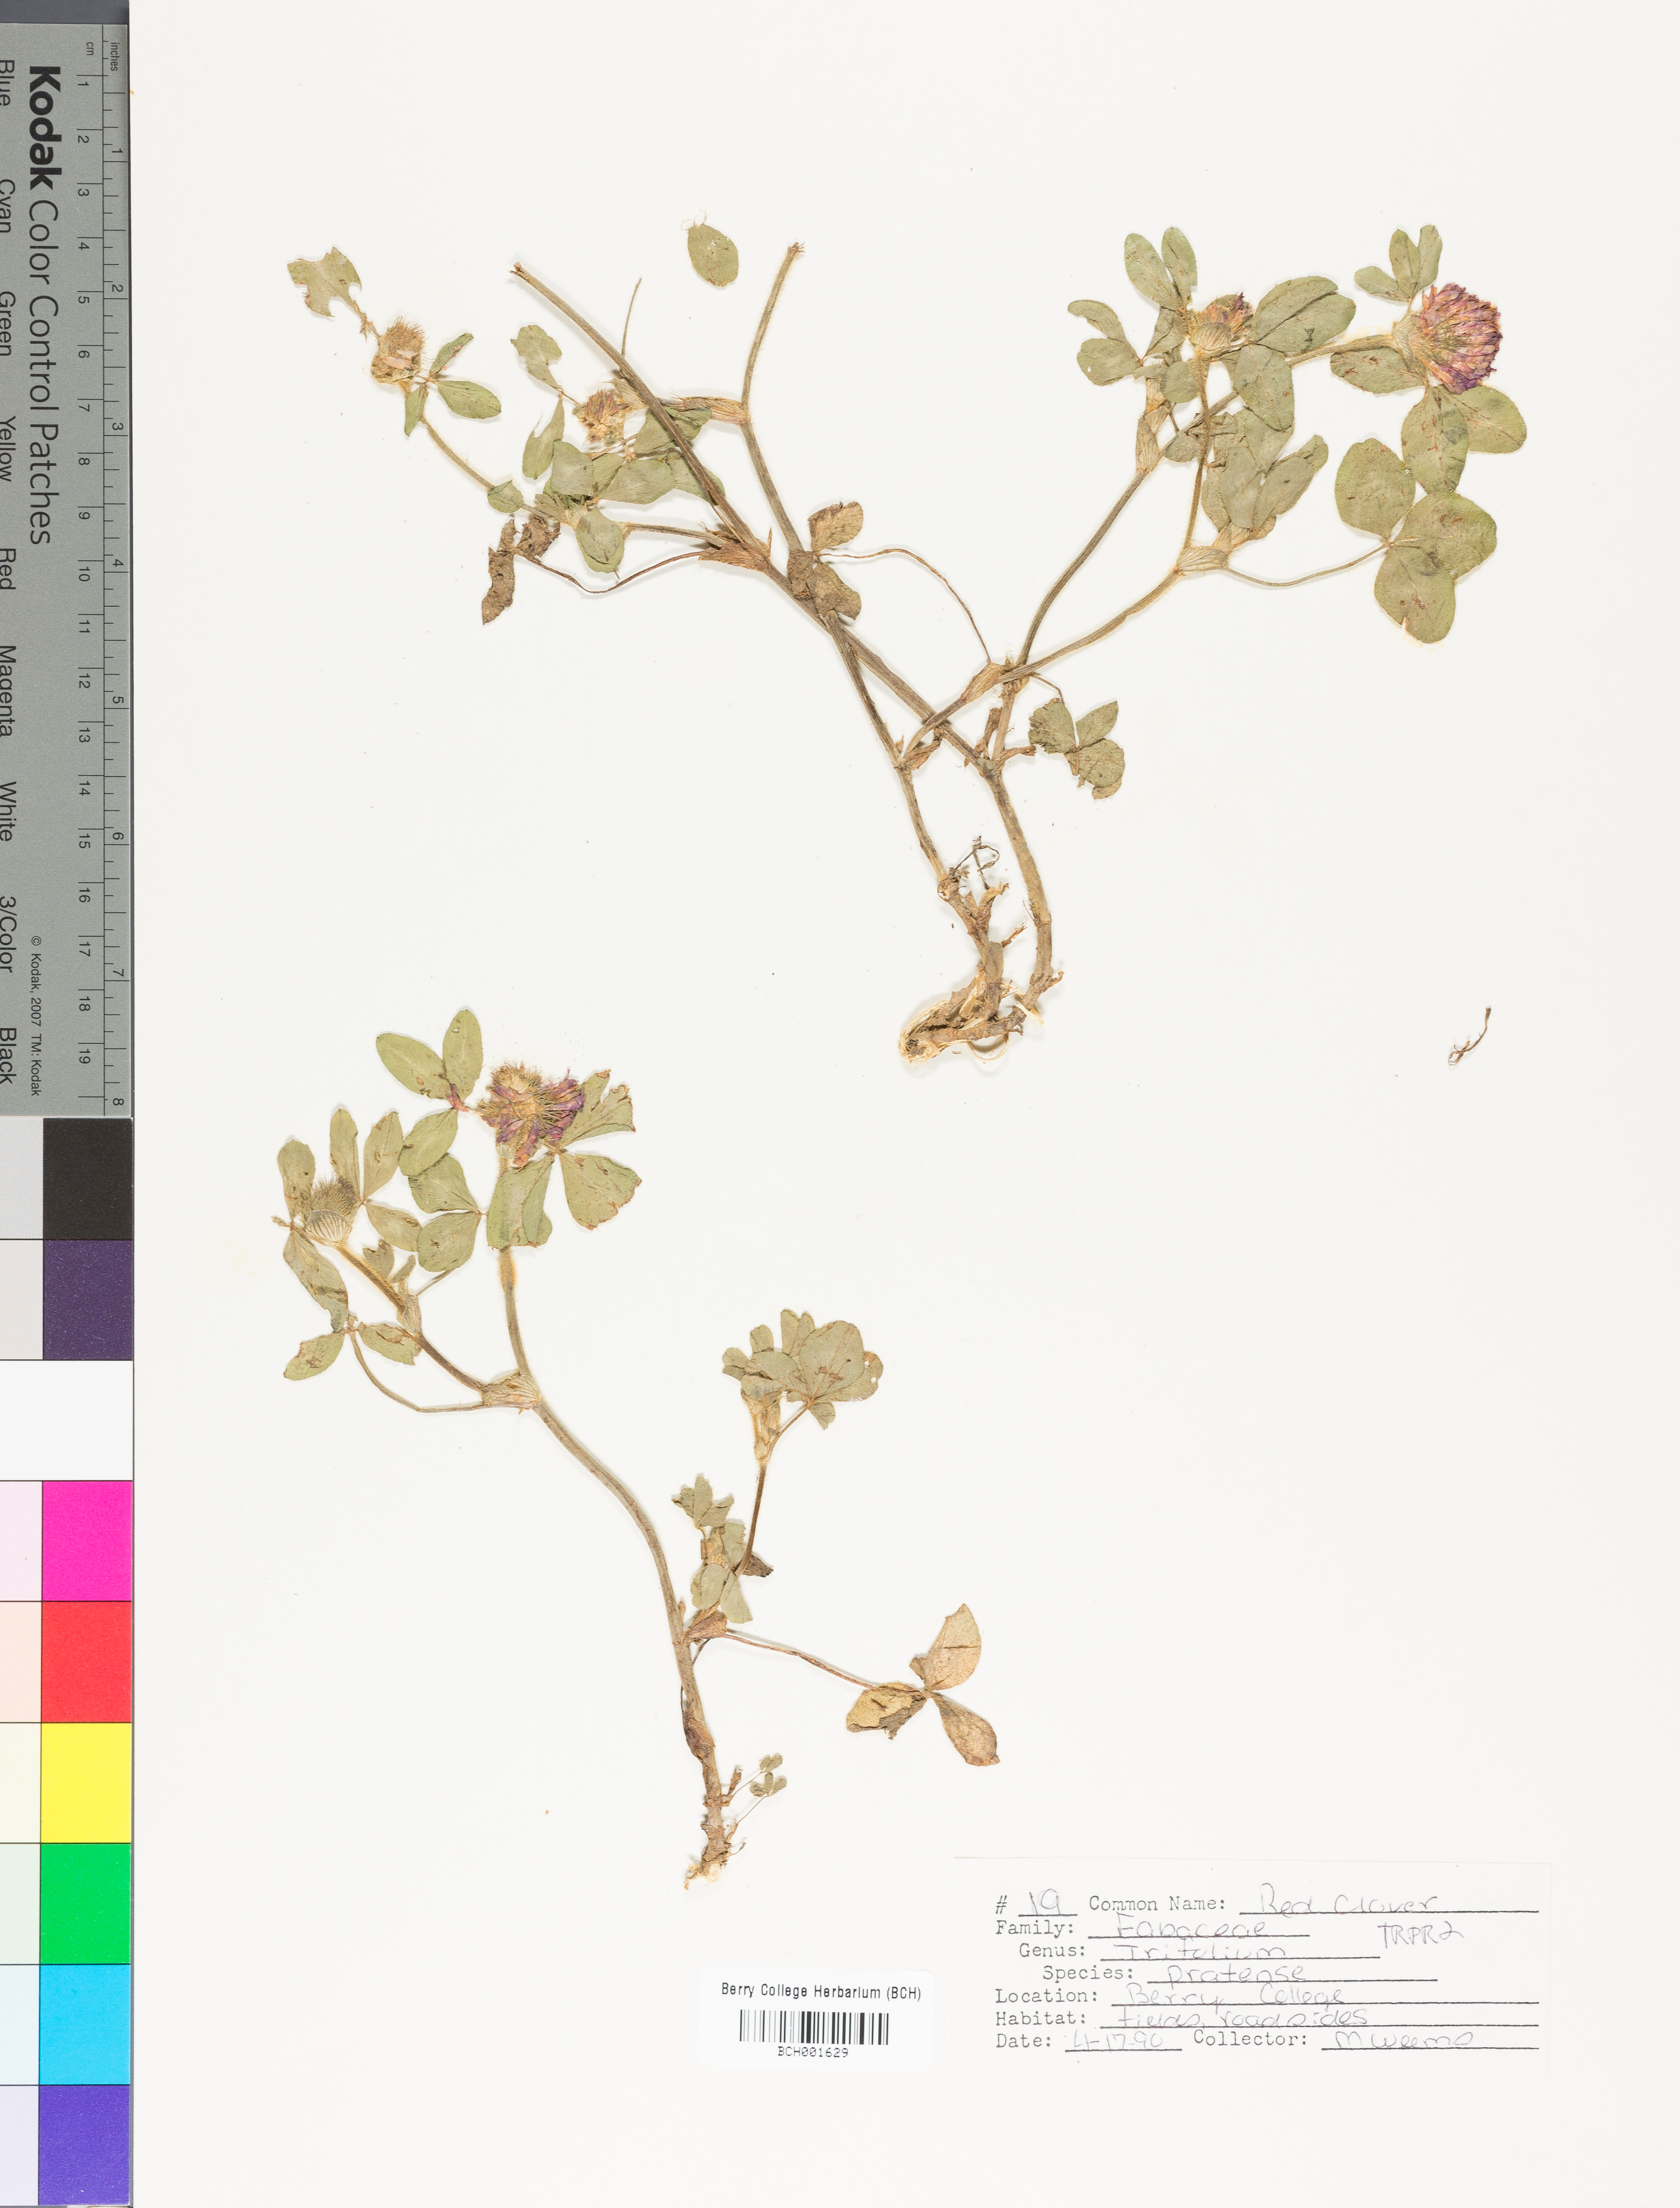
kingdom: Plantae
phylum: Tracheophyta
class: Magnoliopsida
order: Fabales
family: Fabaceae
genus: Trifolium
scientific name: Trifolium pratense
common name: Red clover
